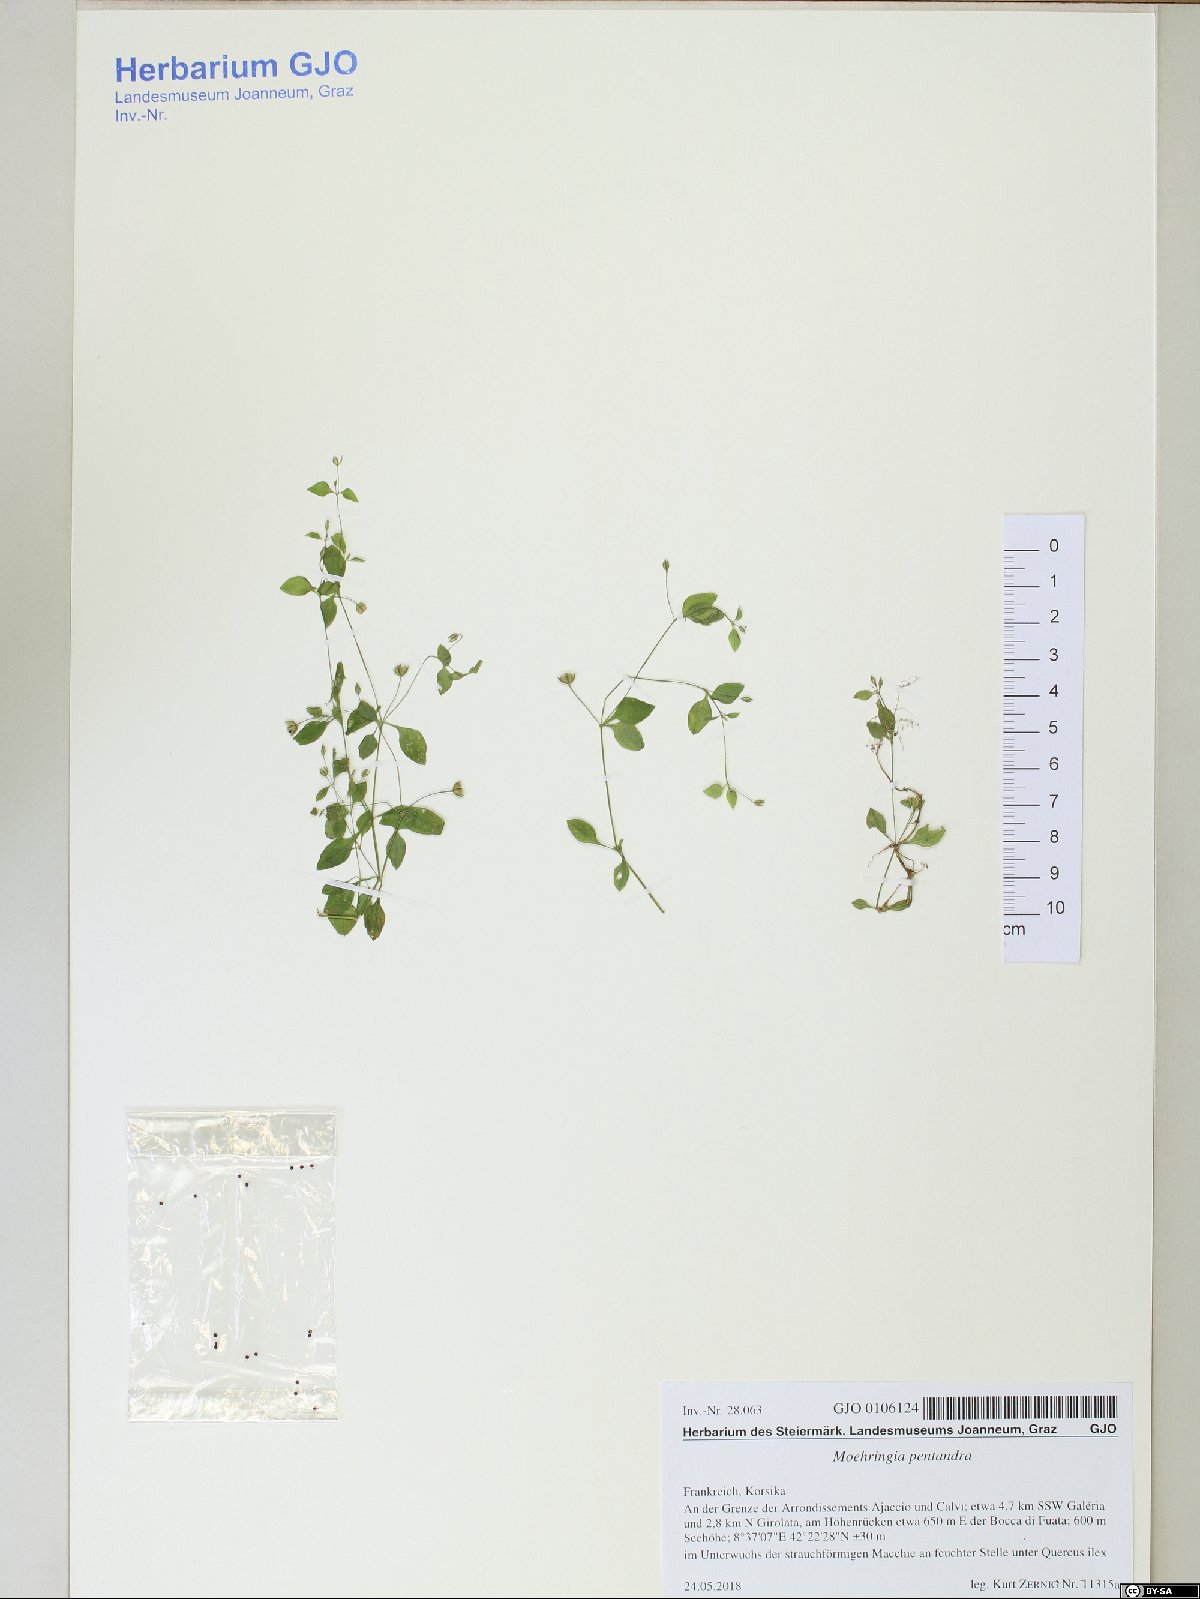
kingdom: Plantae
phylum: Tracheophyta
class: Magnoliopsida
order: Caryophyllales
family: Caryophyllaceae
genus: Moehringia
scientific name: Moehringia pentandra
